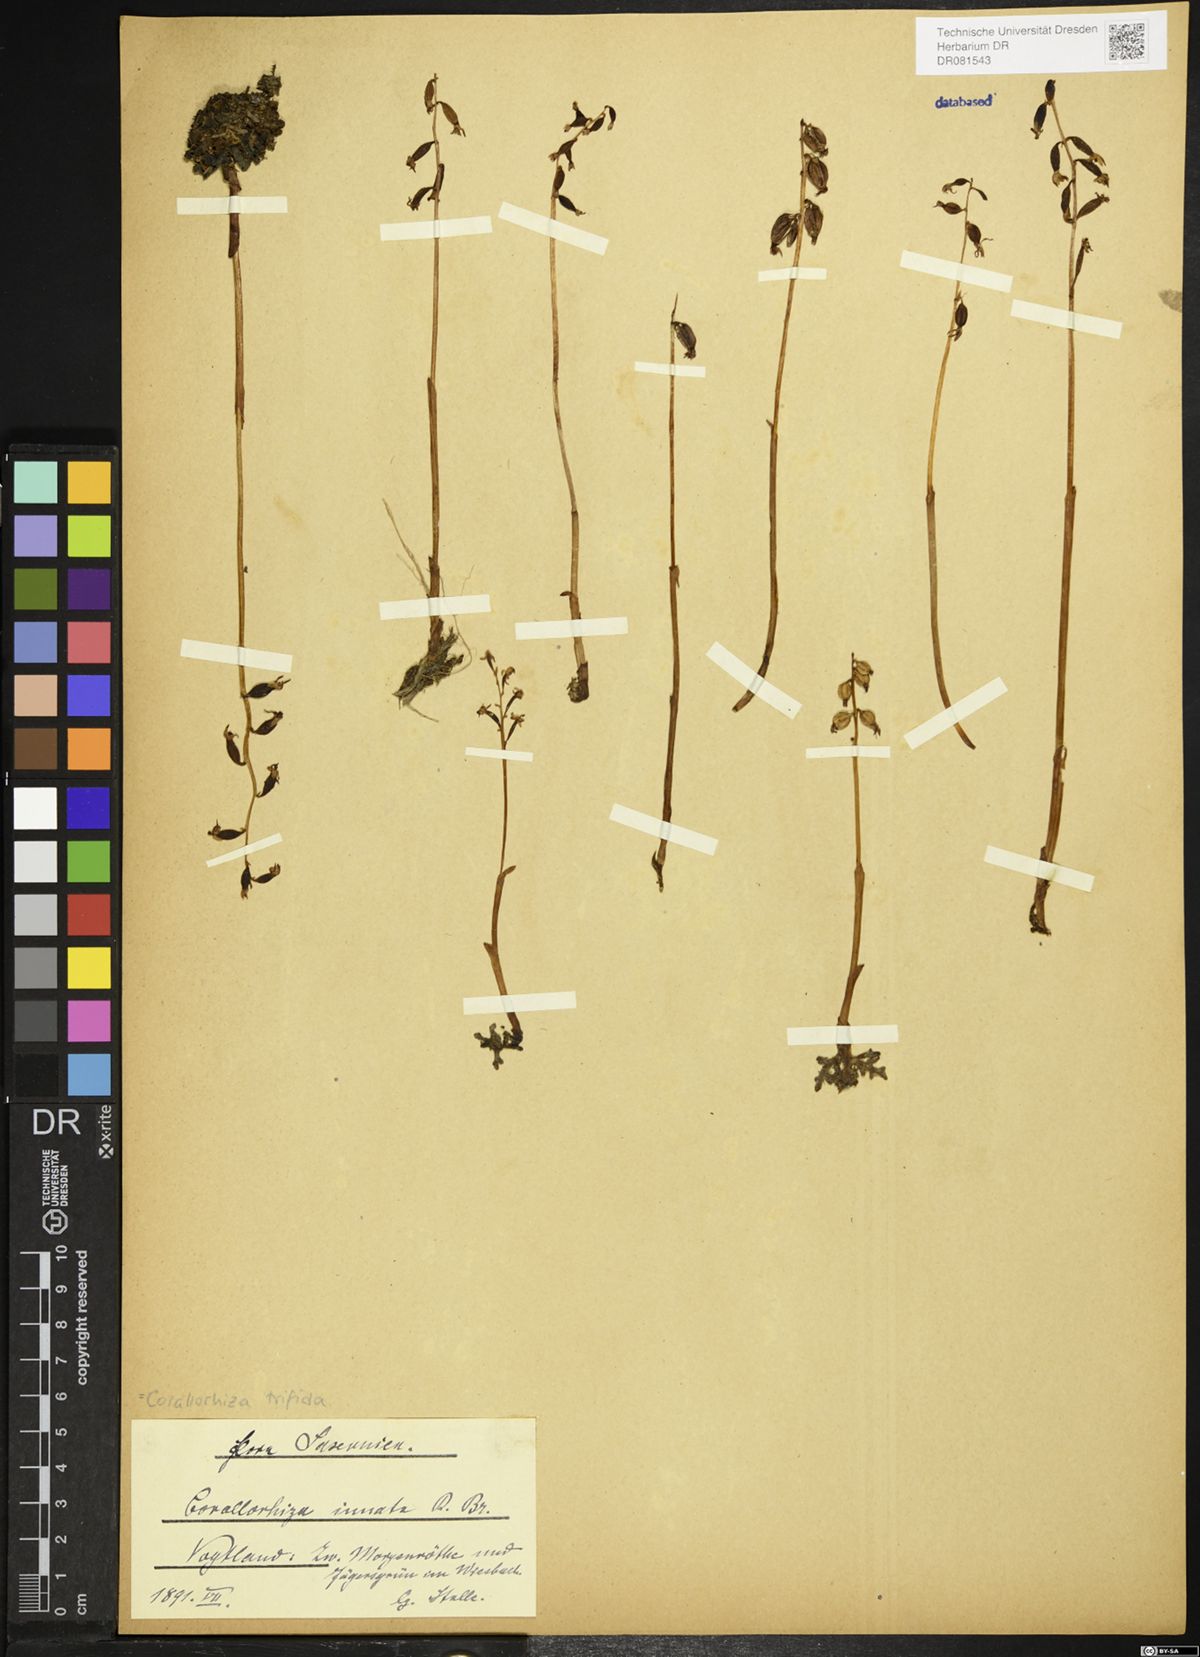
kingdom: Plantae
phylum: Tracheophyta
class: Liliopsida
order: Asparagales
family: Orchidaceae
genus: Corallorhiza
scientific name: Corallorhiza trifida
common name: Yellow coralroot
